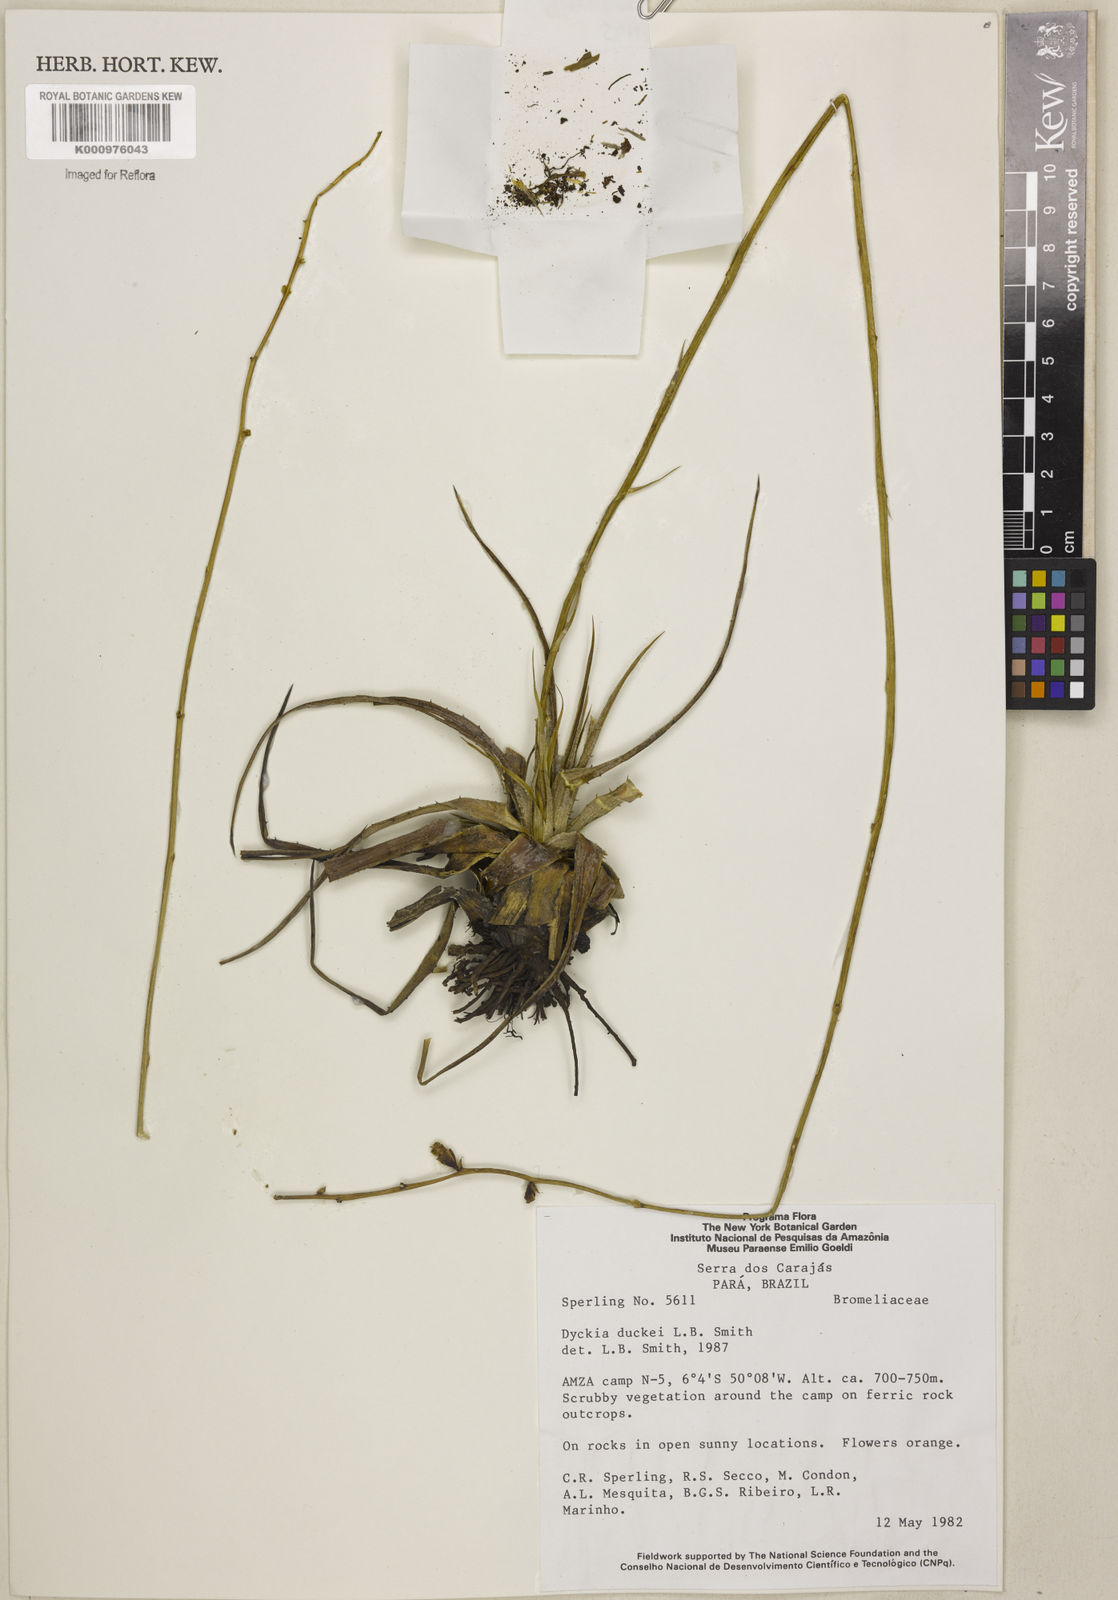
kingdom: Plantae
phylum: Tracheophyta
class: Liliopsida
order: Poales
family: Bromeliaceae
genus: Dyckia
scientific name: Dyckia duckei
